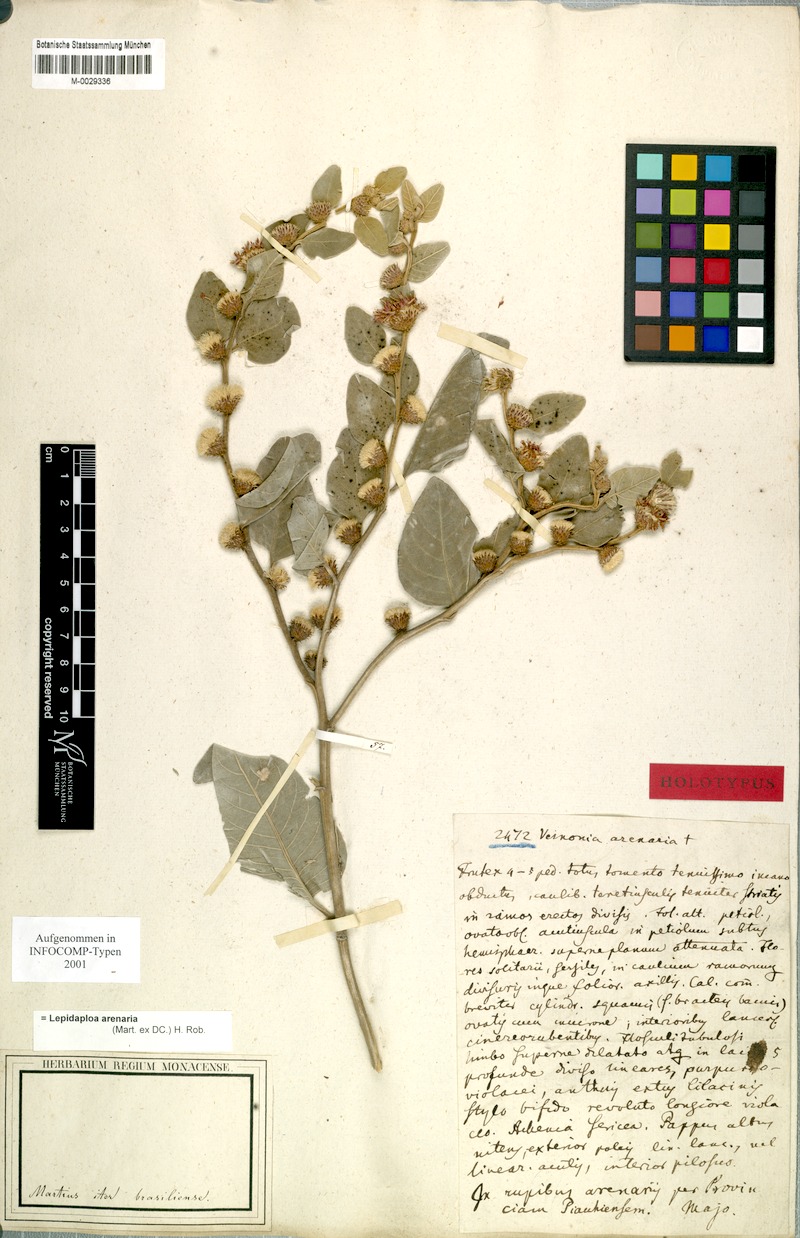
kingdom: Plantae
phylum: Tracheophyta
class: Magnoliopsida
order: Asterales
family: Asteraceae
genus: Lepidaploa
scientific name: Lepidaploa arenaria
